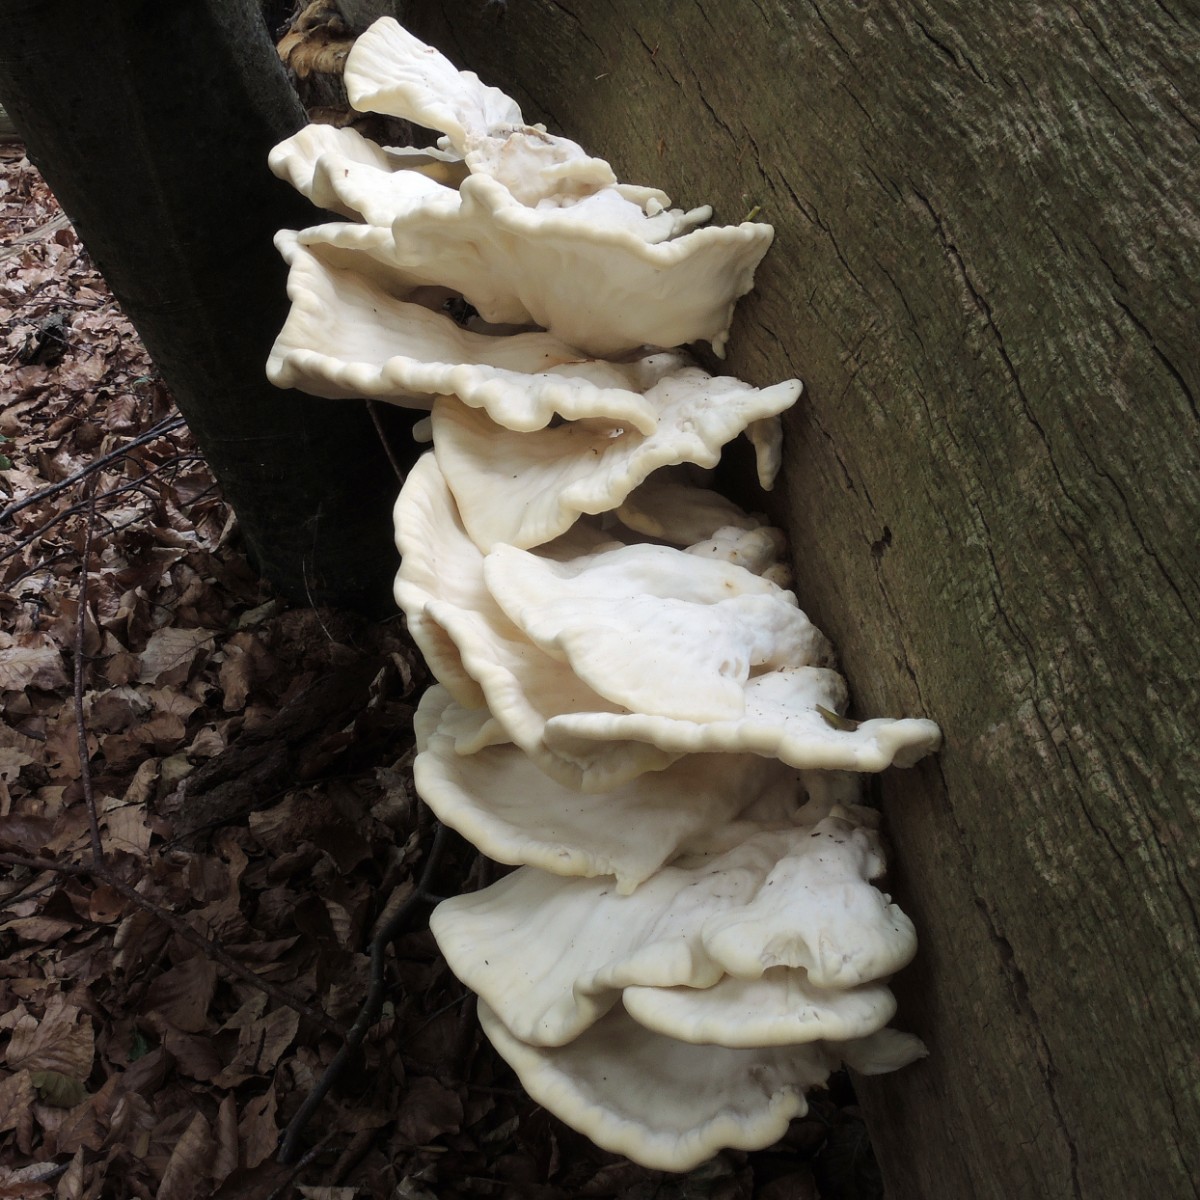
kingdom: Fungi
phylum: Basidiomycota
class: Agaricomycetes
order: Polyporales
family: Laetiporaceae
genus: Laetiporus
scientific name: Laetiporus sulphureus
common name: svovlporesvamp
